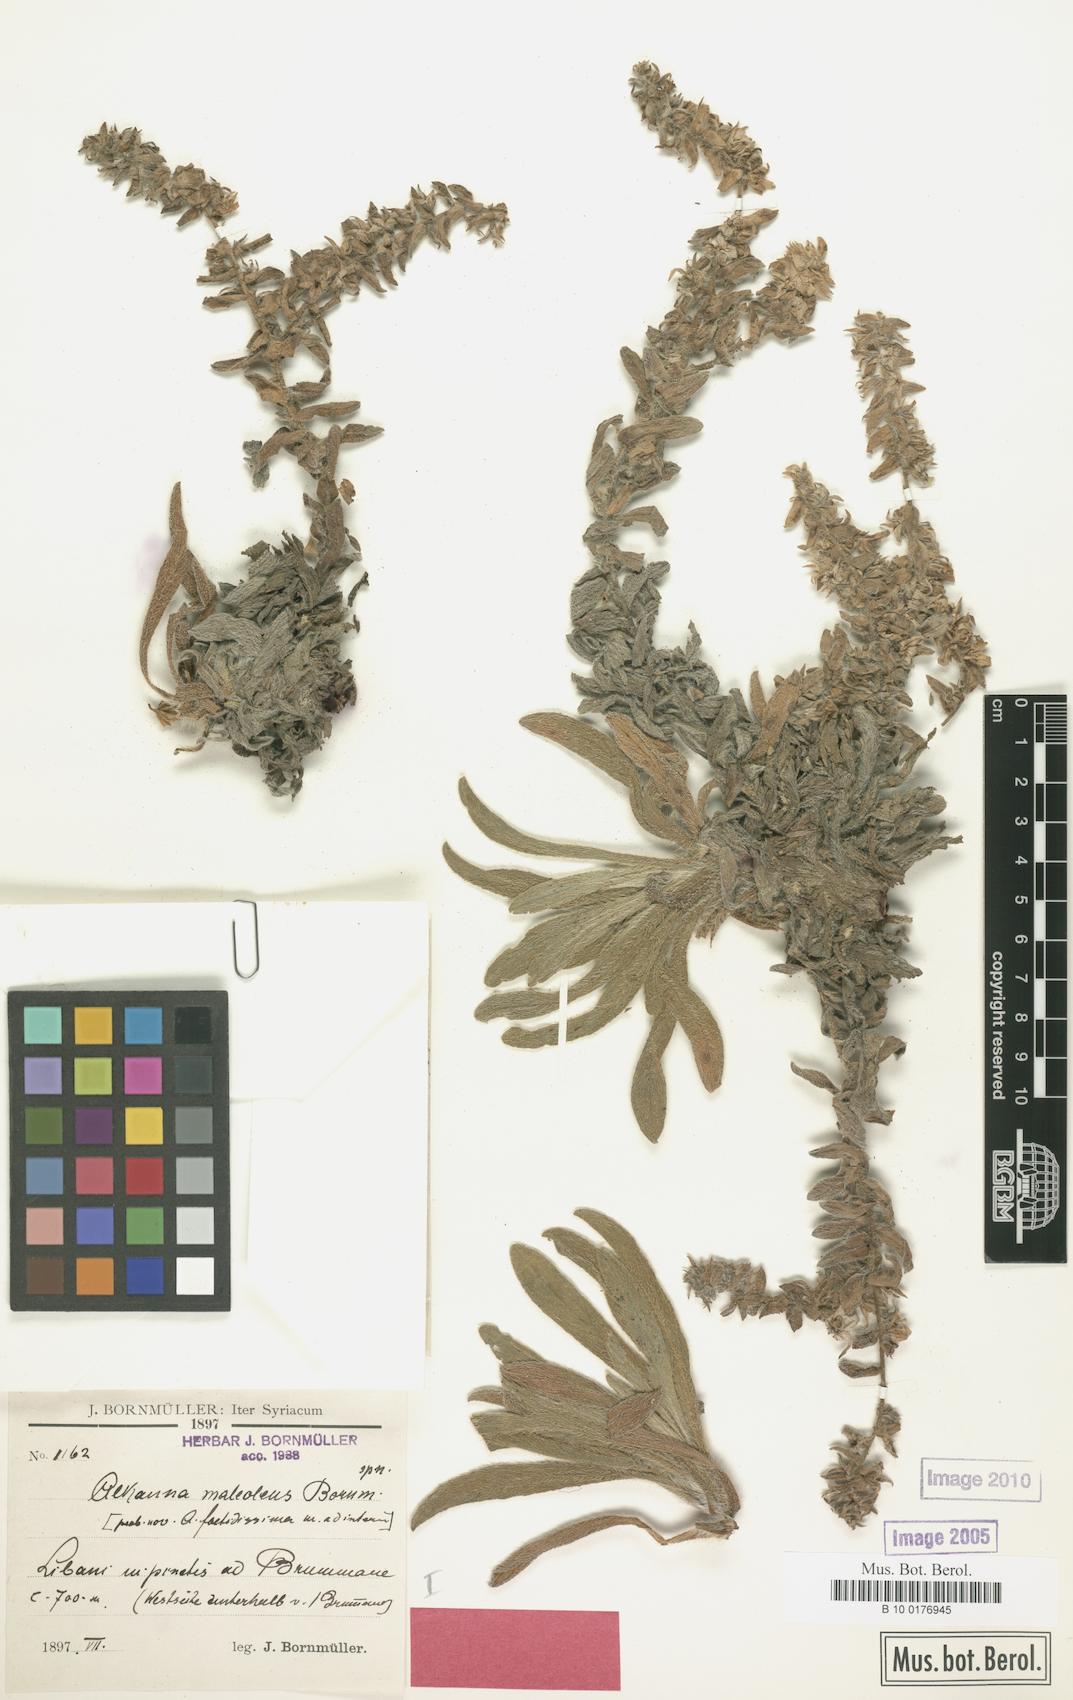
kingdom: Plantae
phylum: Tracheophyta
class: Magnoliopsida
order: Boraginales
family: Boraginaceae
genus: Alkanna
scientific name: Alkanna maleolens
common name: Bad-smelling alkanet
